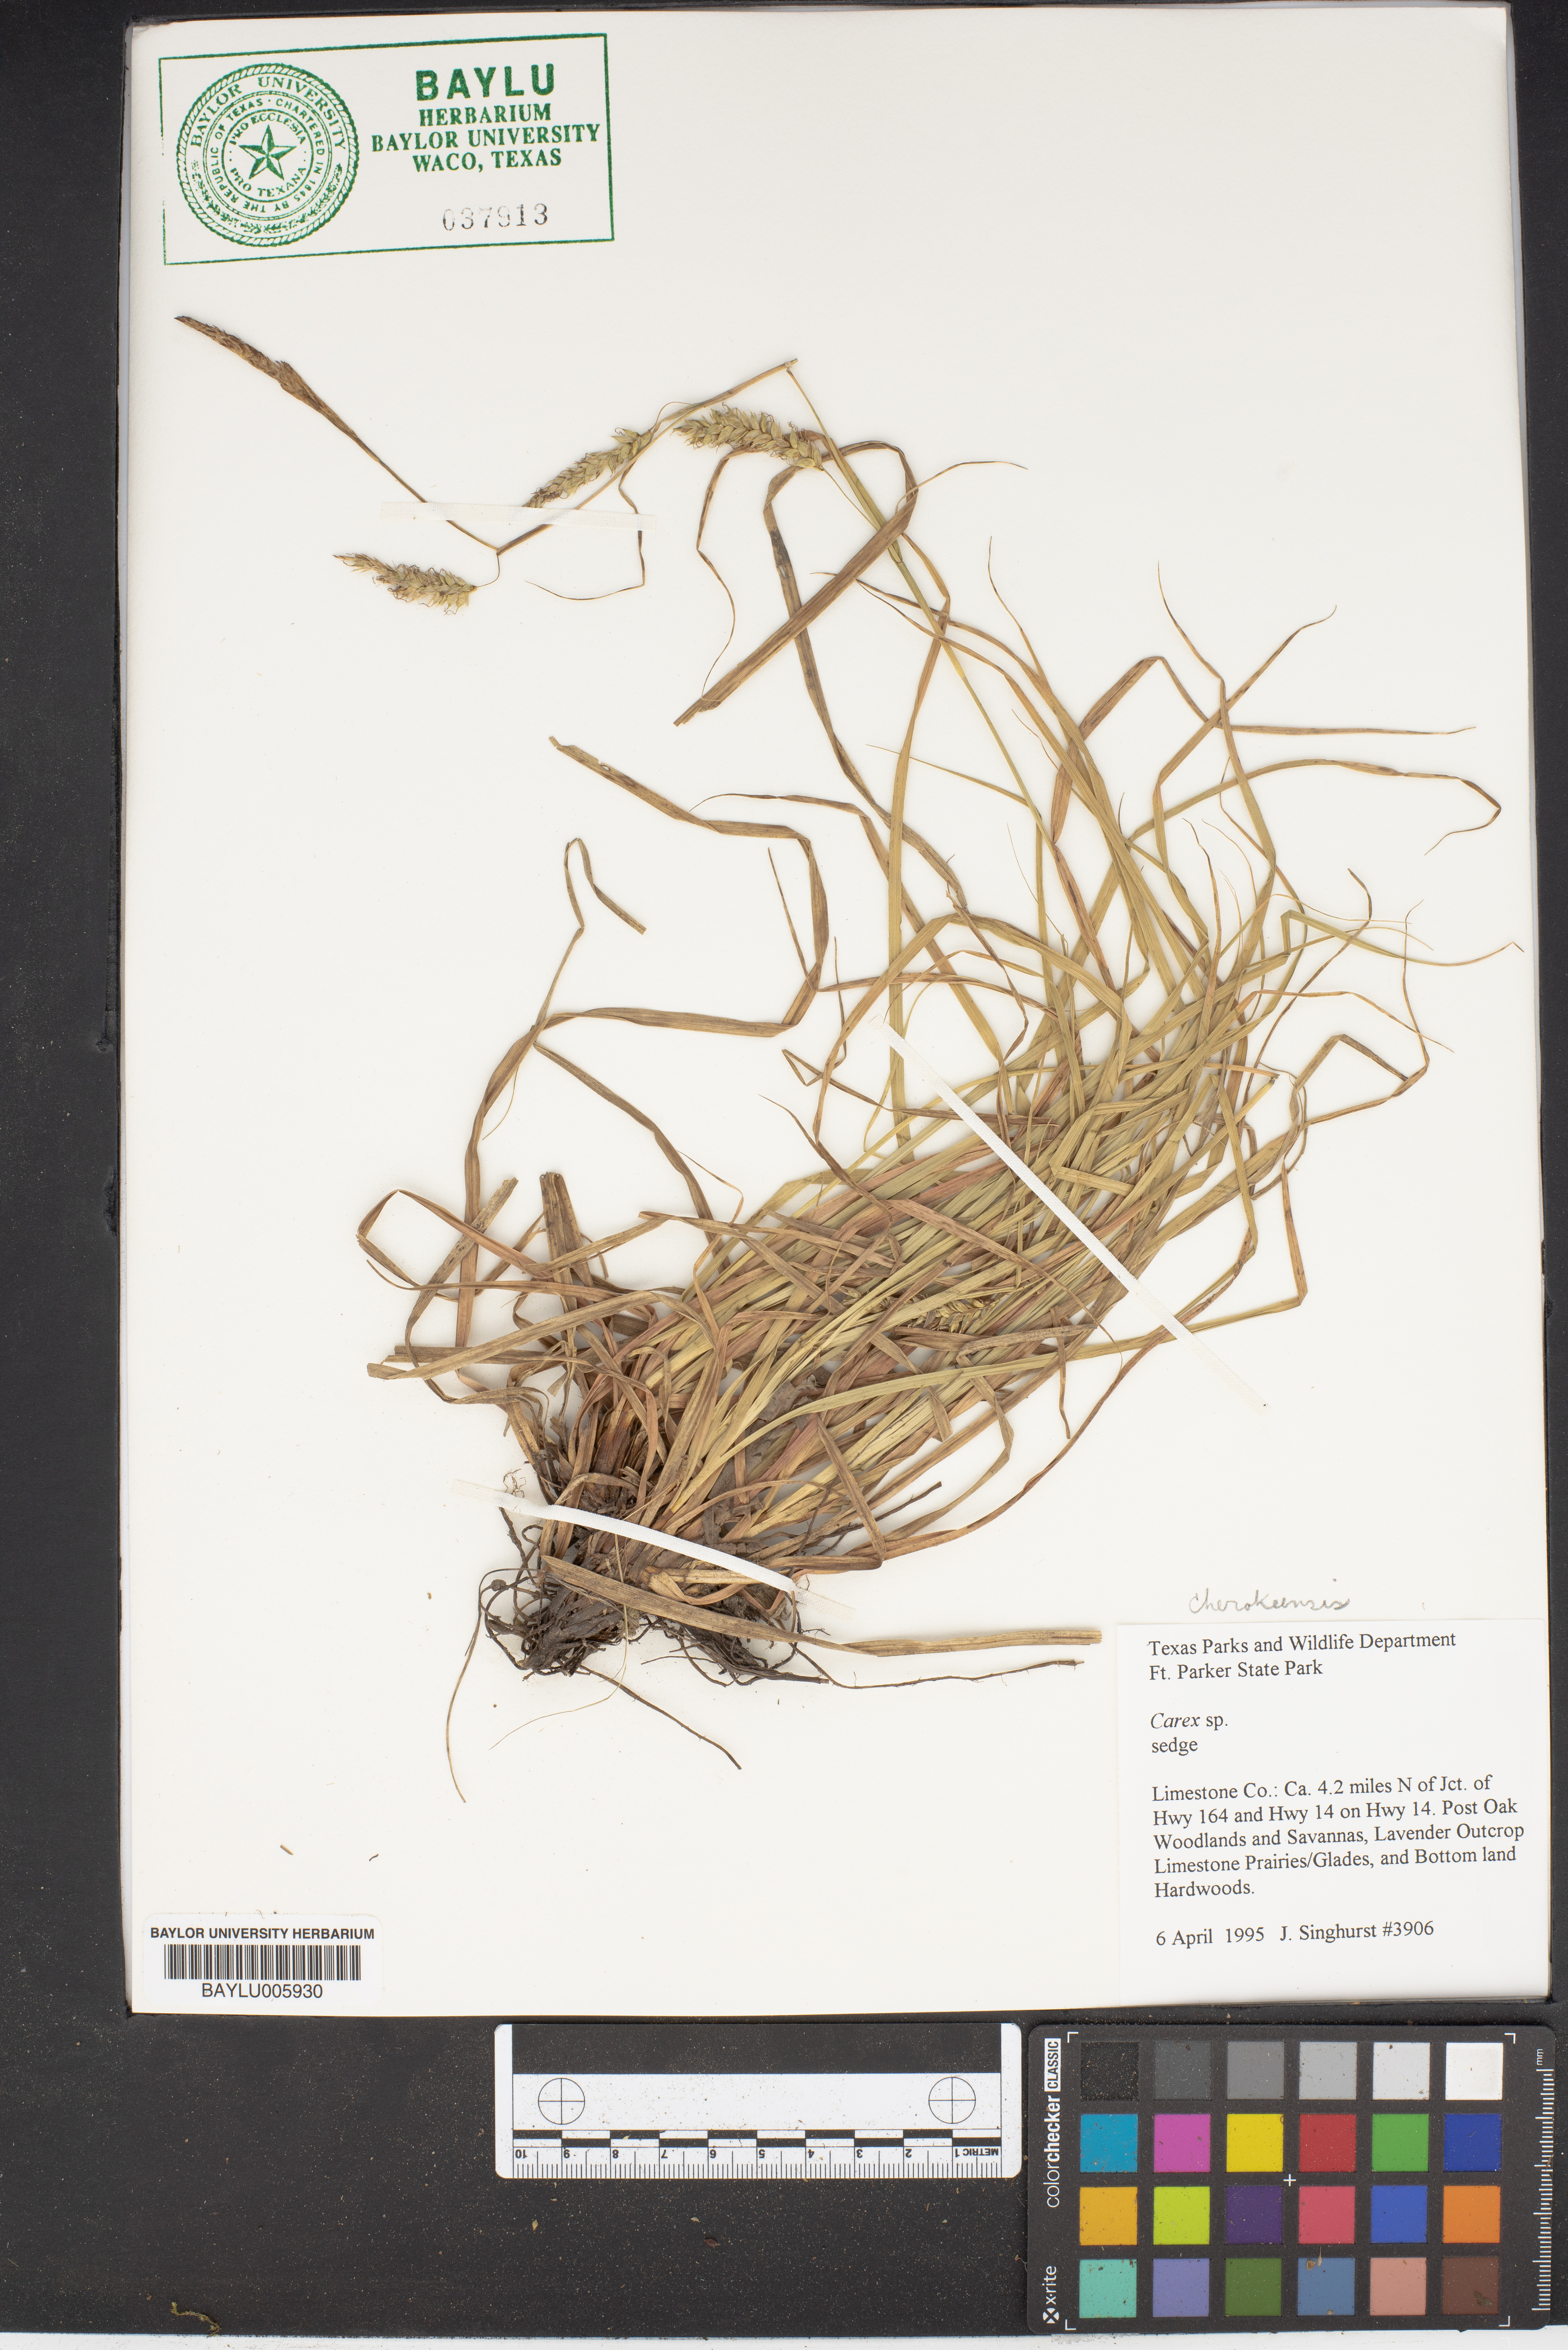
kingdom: Plantae
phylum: Tracheophyta
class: Liliopsida
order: Poales
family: Cyperaceae
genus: Carex
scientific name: Carex
